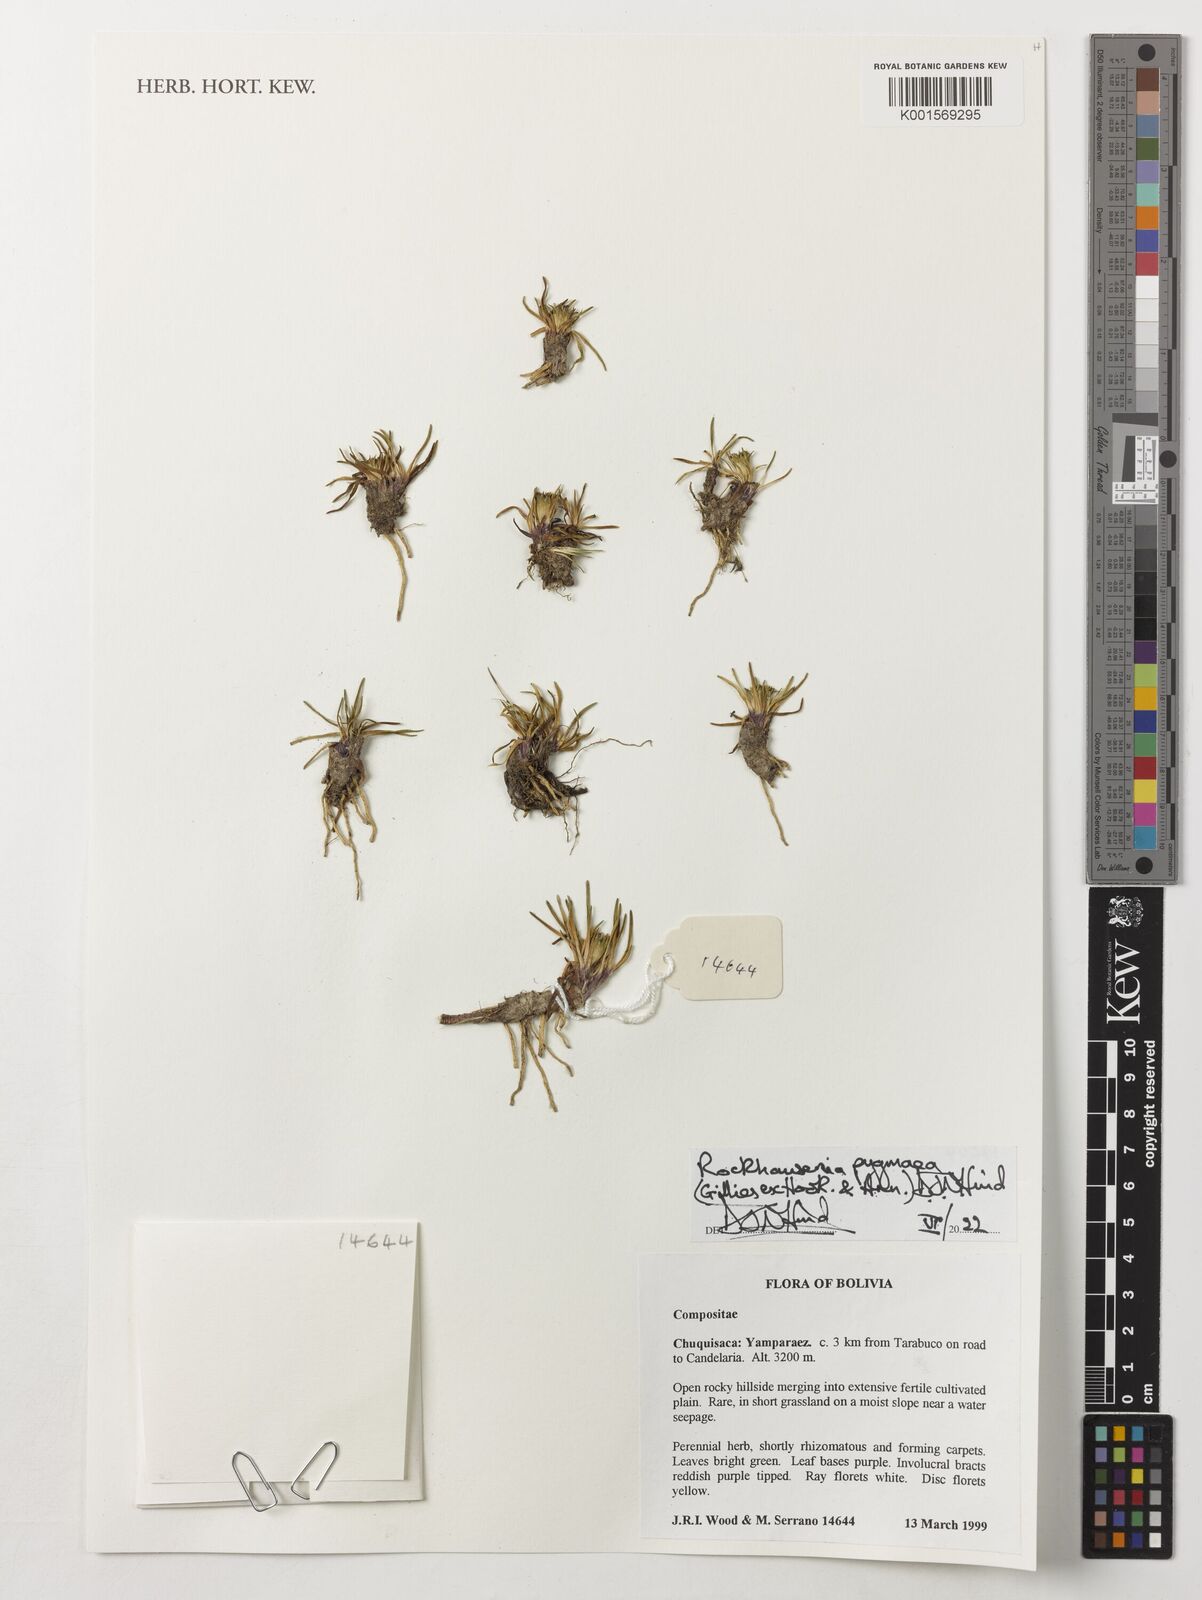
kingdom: Plantae
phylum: Tracheophyta
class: Magnoliopsida
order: Asterales
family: Asteraceae
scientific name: Asteraceae
